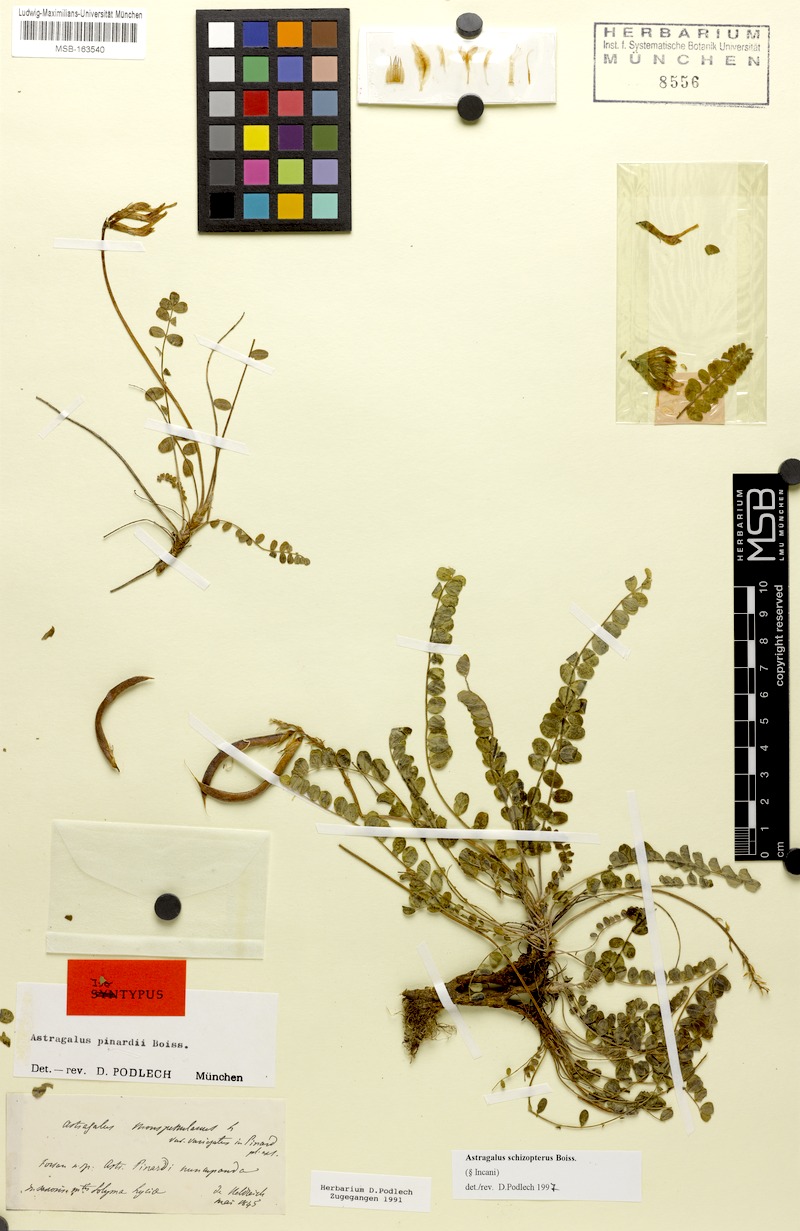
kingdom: Plantae
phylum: Tracheophyta
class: Magnoliopsida
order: Fabales
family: Fabaceae
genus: Astragalus
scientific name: Astragalus schizopterus
